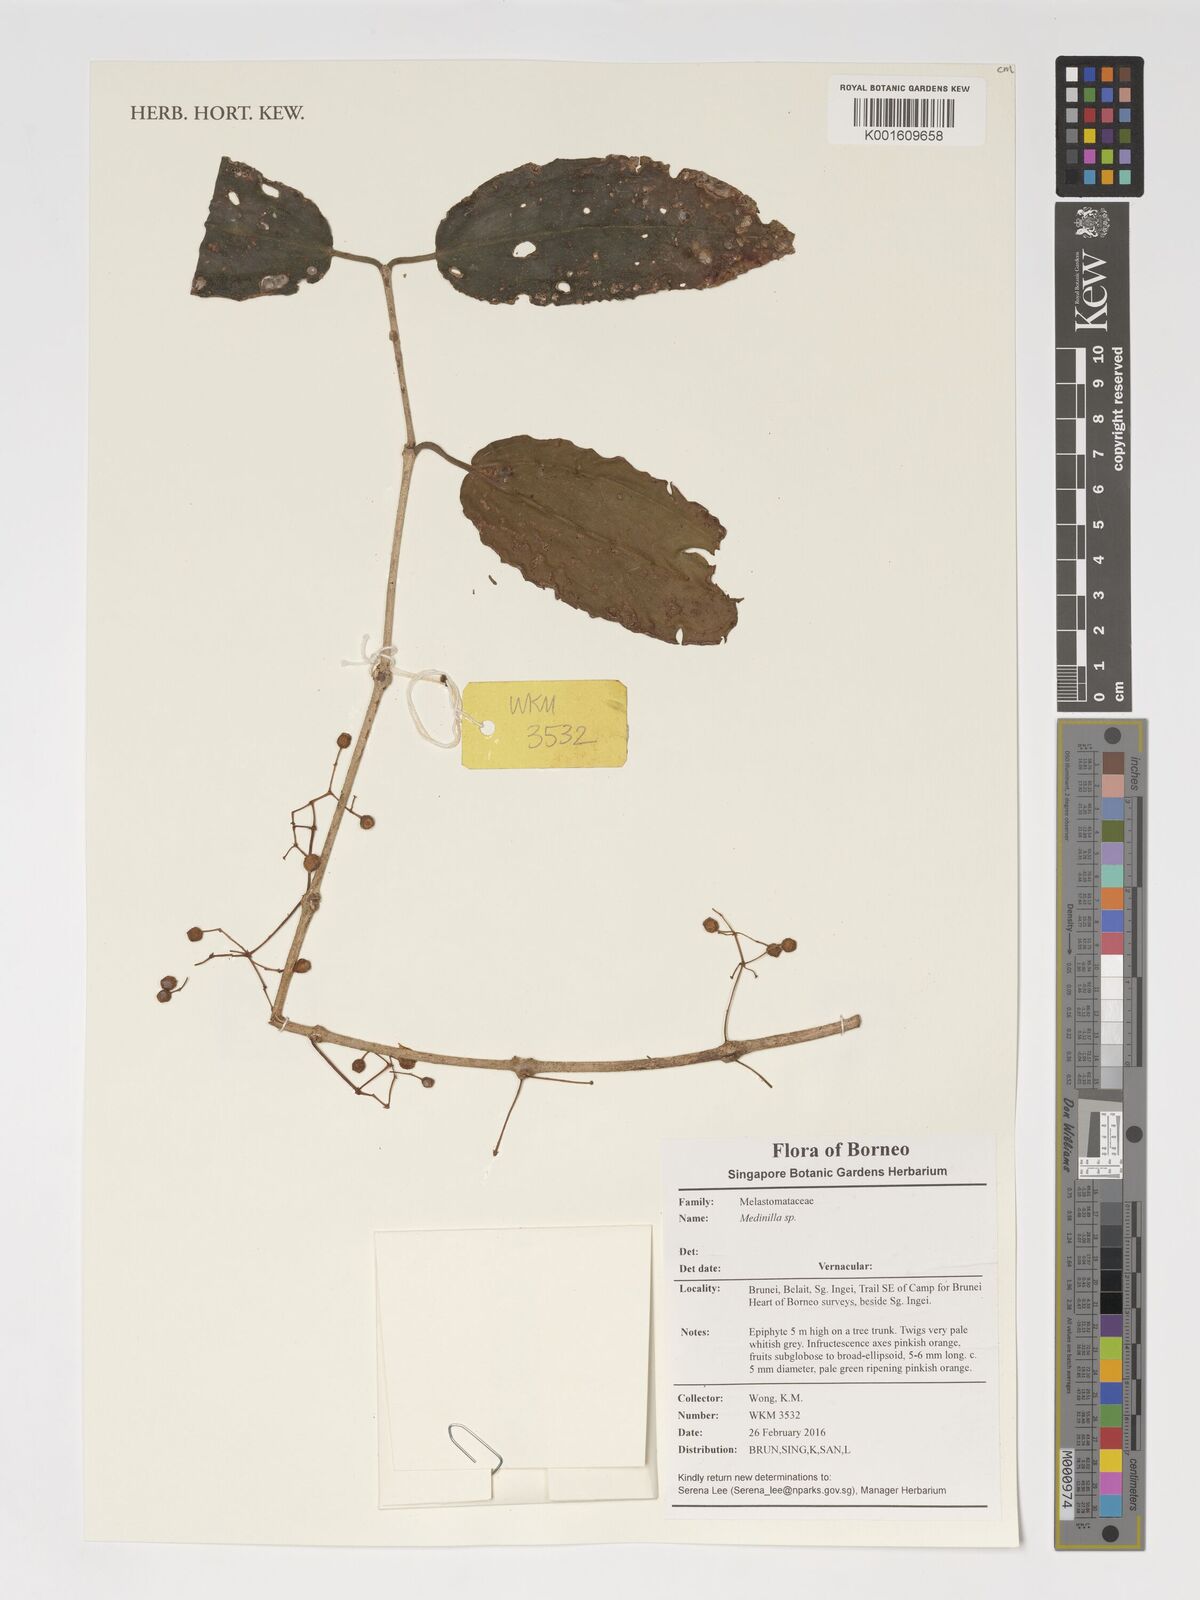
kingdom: Plantae
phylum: Tracheophyta
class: Magnoliopsida
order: Myrtales
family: Melastomataceae
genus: Medinilla
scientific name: Medinilla
